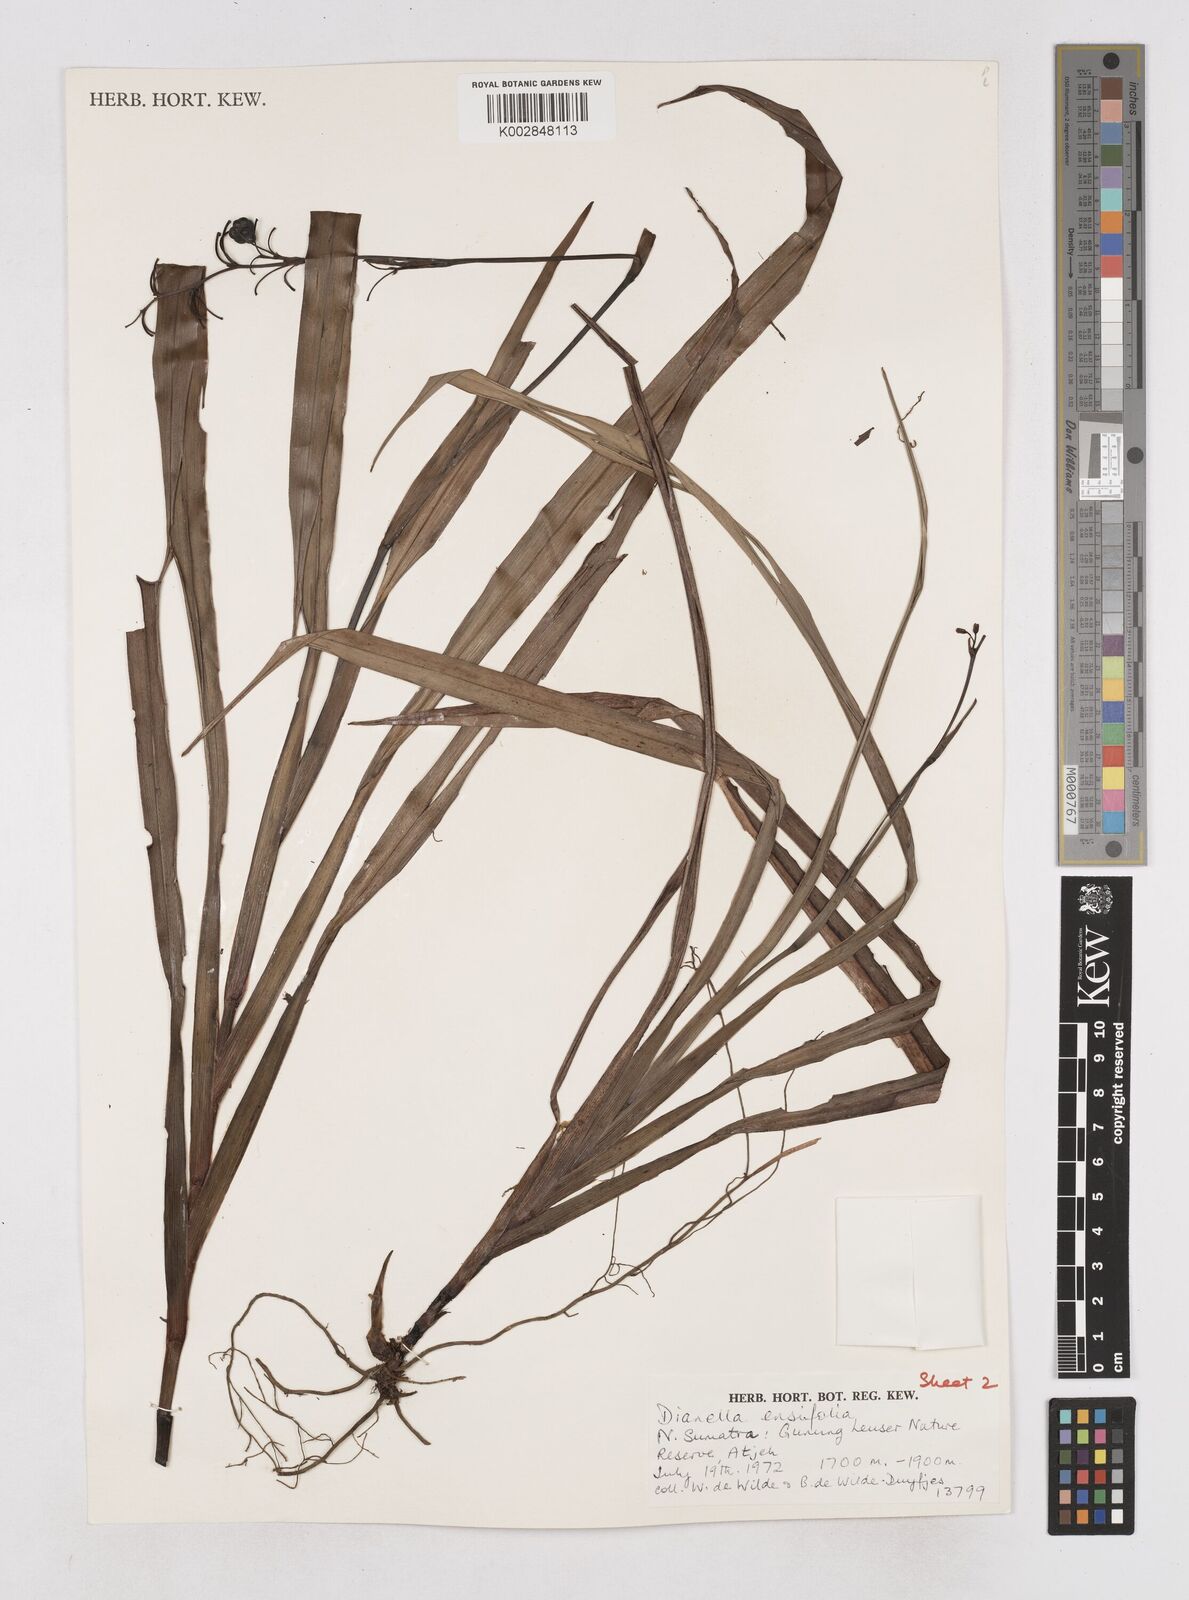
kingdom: Plantae
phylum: Tracheophyta
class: Liliopsida
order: Asparagales
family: Asphodelaceae
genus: Dianella
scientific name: Dianella ensifolia
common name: New zealand lilyplant
